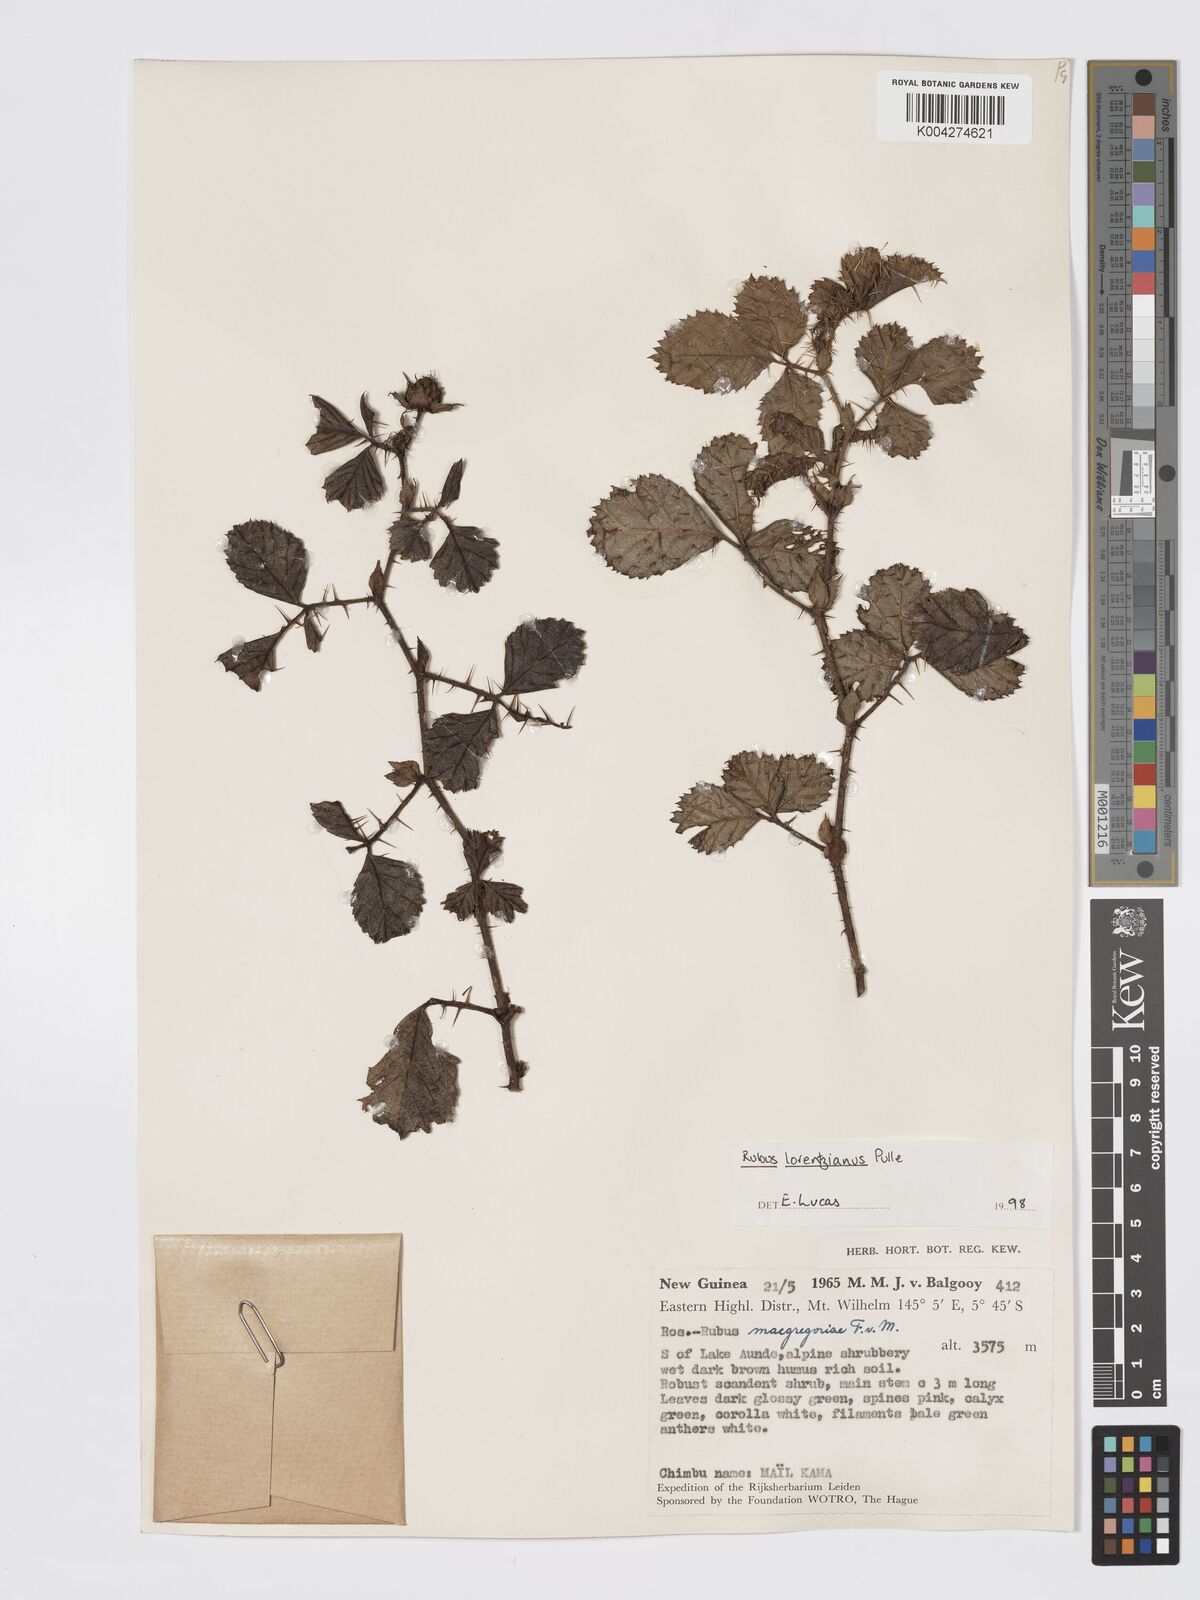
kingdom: Plantae
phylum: Tracheophyta
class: Magnoliopsida
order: Rosales
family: Rosaceae
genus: Rubus
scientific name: Rubus lorentzianus
